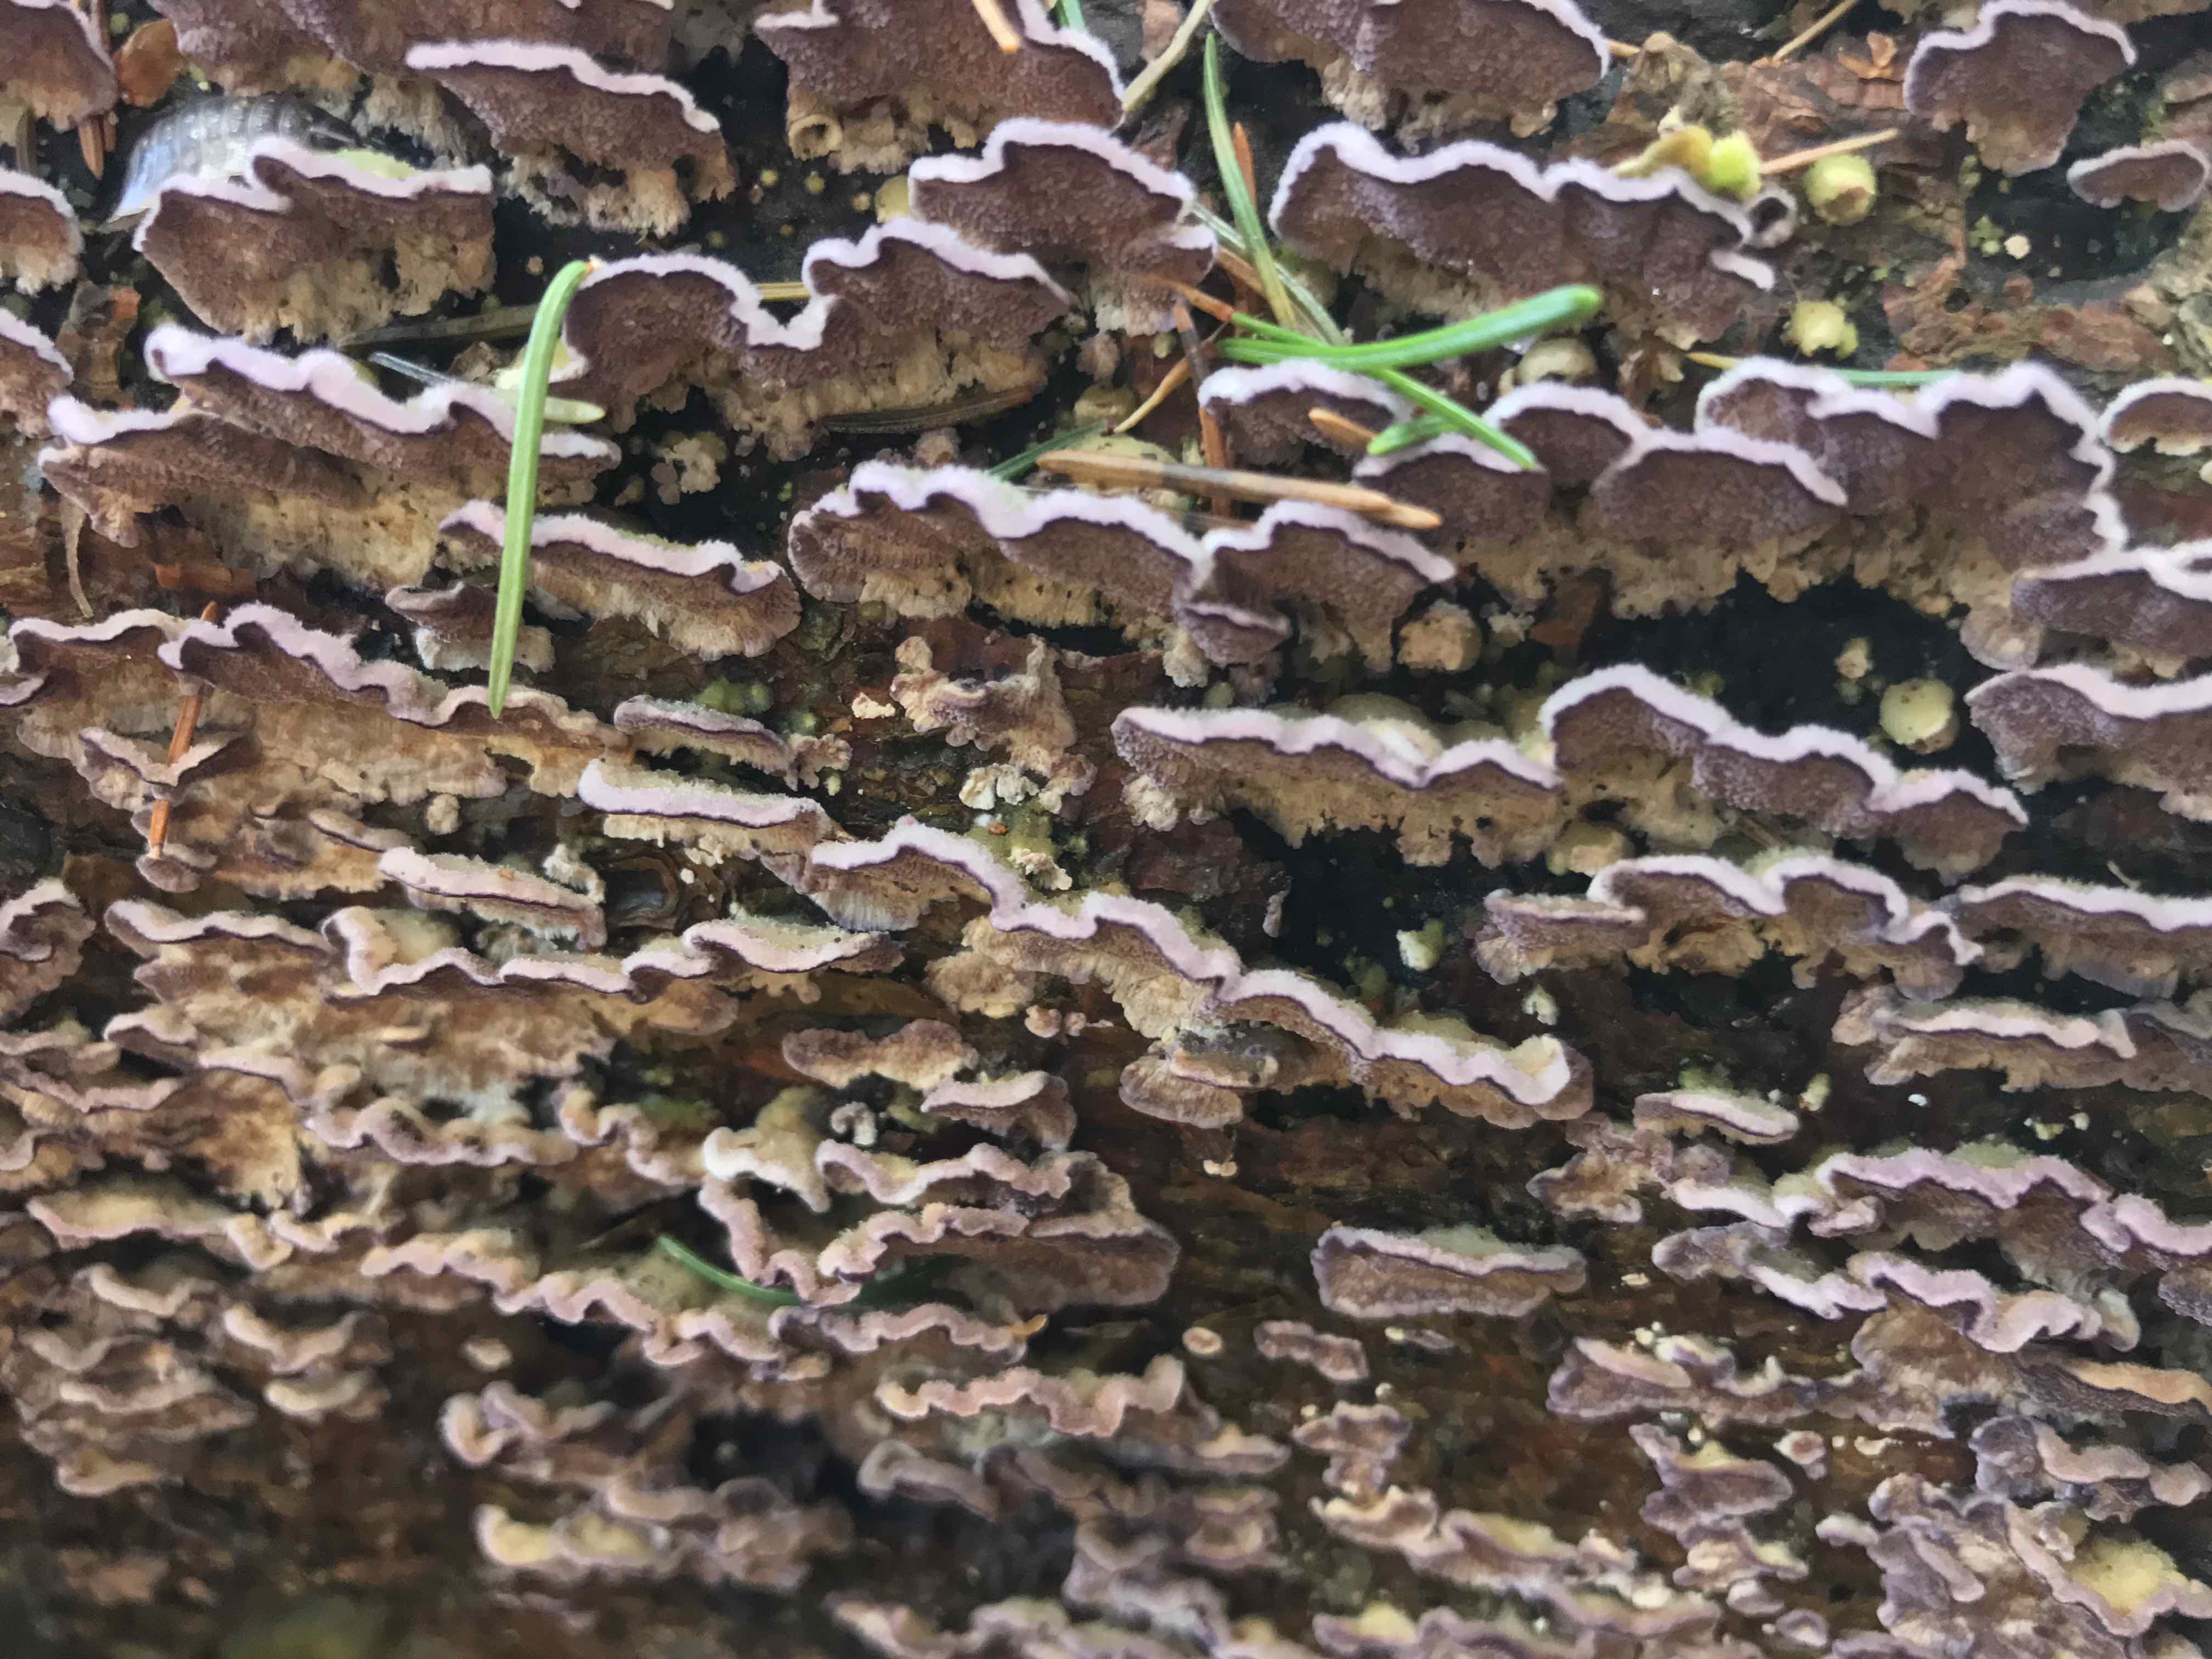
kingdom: Fungi
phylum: Basidiomycota
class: Agaricomycetes
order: Hymenochaetales
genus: Trichaptum
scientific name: Trichaptum abietinum
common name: almindelig violporesvamp
